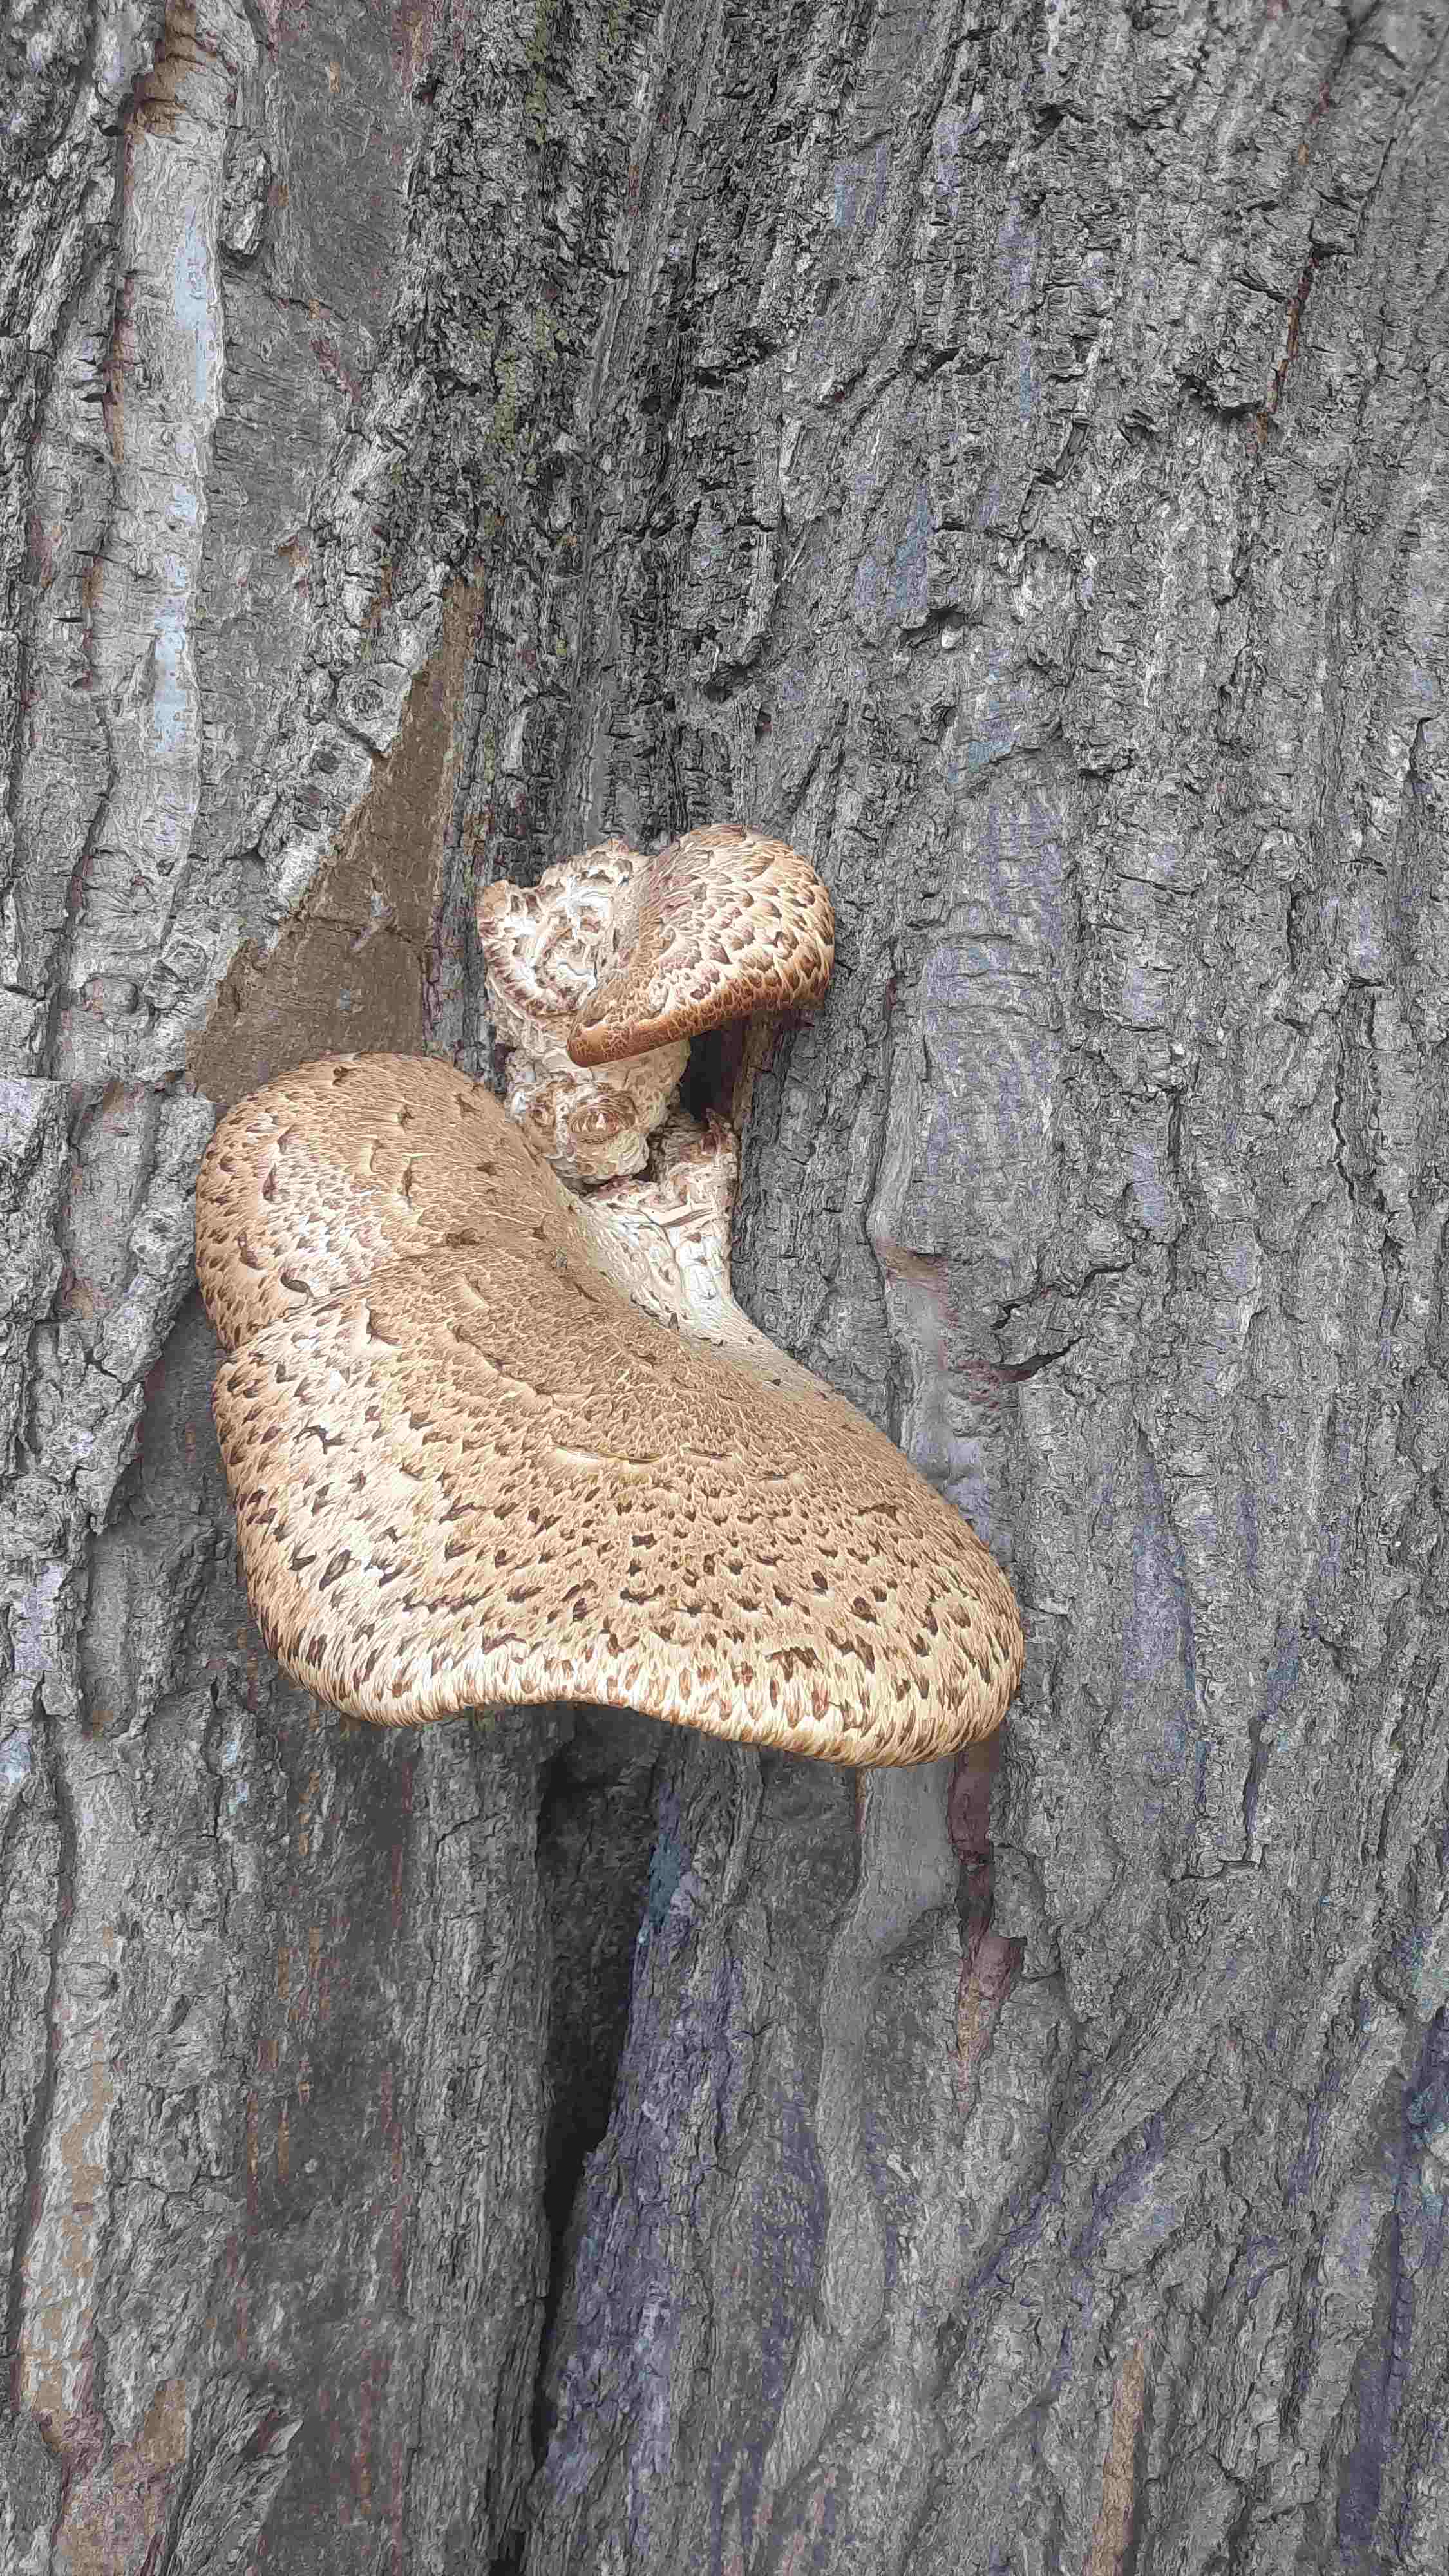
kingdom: Fungi
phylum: Basidiomycota
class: Agaricomycetes
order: Polyporales
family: Polyporaceae
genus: Cerioporus
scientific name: Cerioporus squamosus
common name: skællet stilkporesvamp
